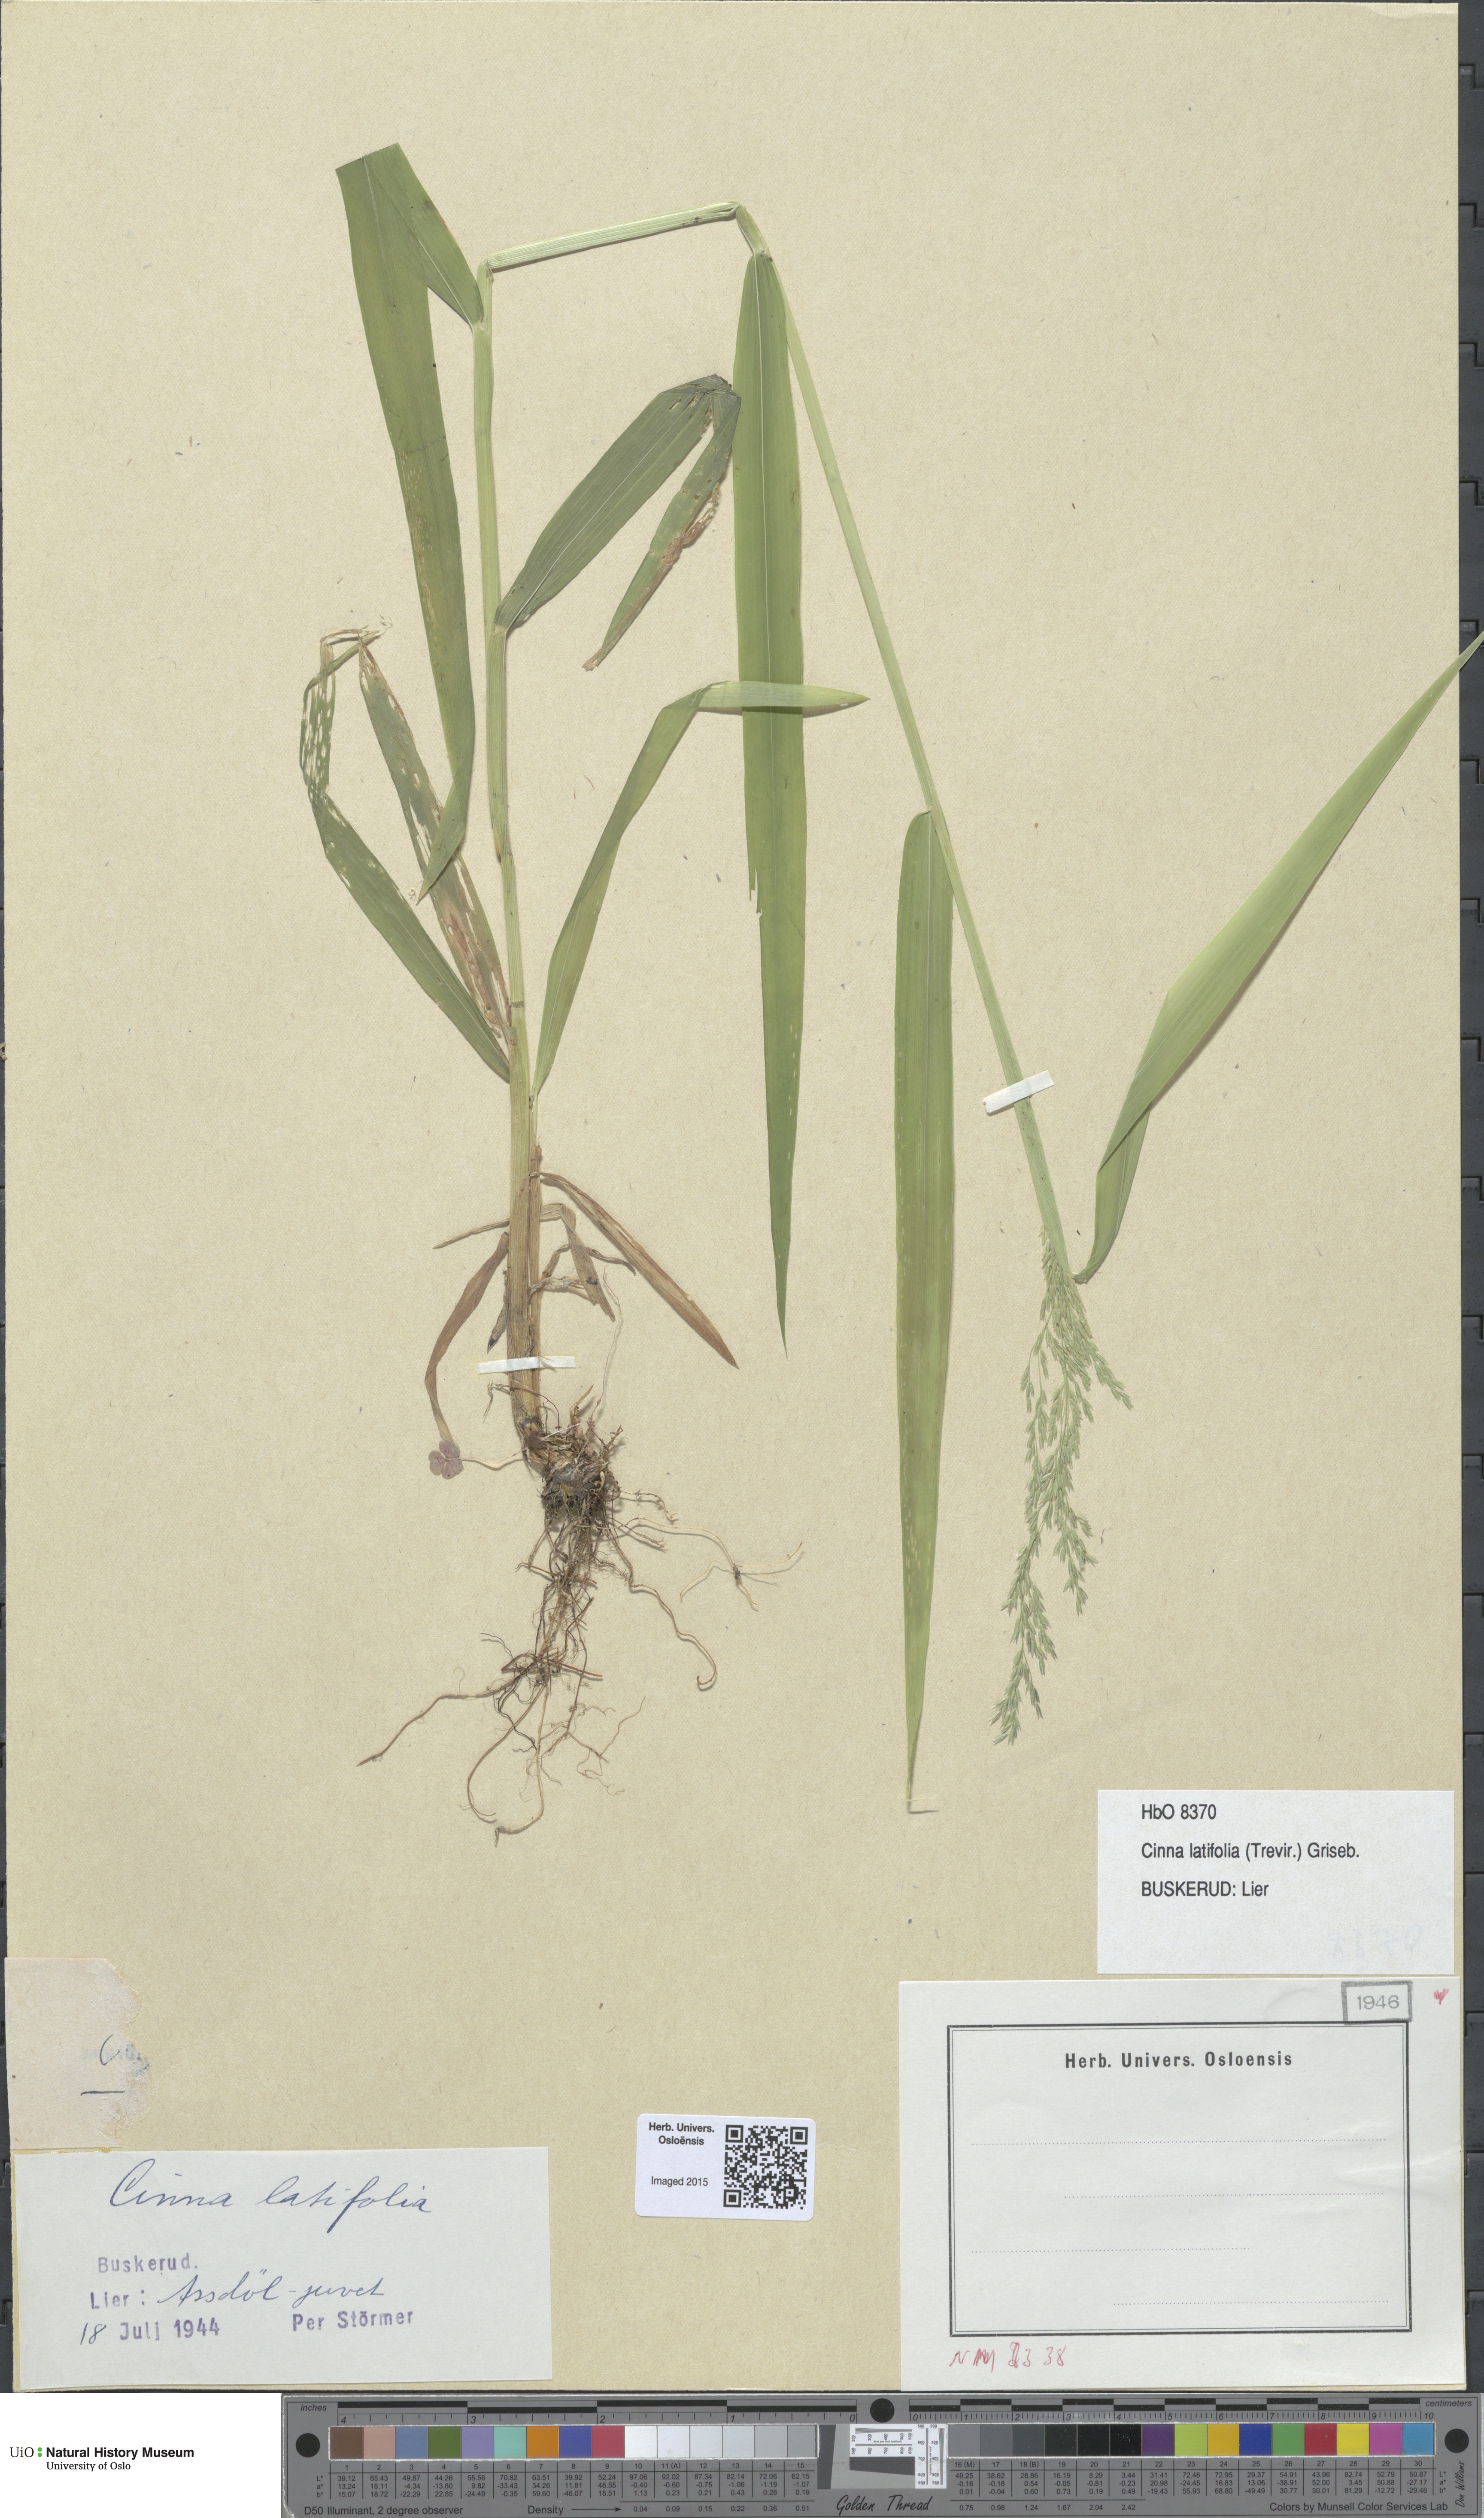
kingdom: Plantae
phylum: Tracheophyta
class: Liliopsida
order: Poales
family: Poaceae
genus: Cinna
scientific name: Cinna latifolia
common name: Drooping woodreed
